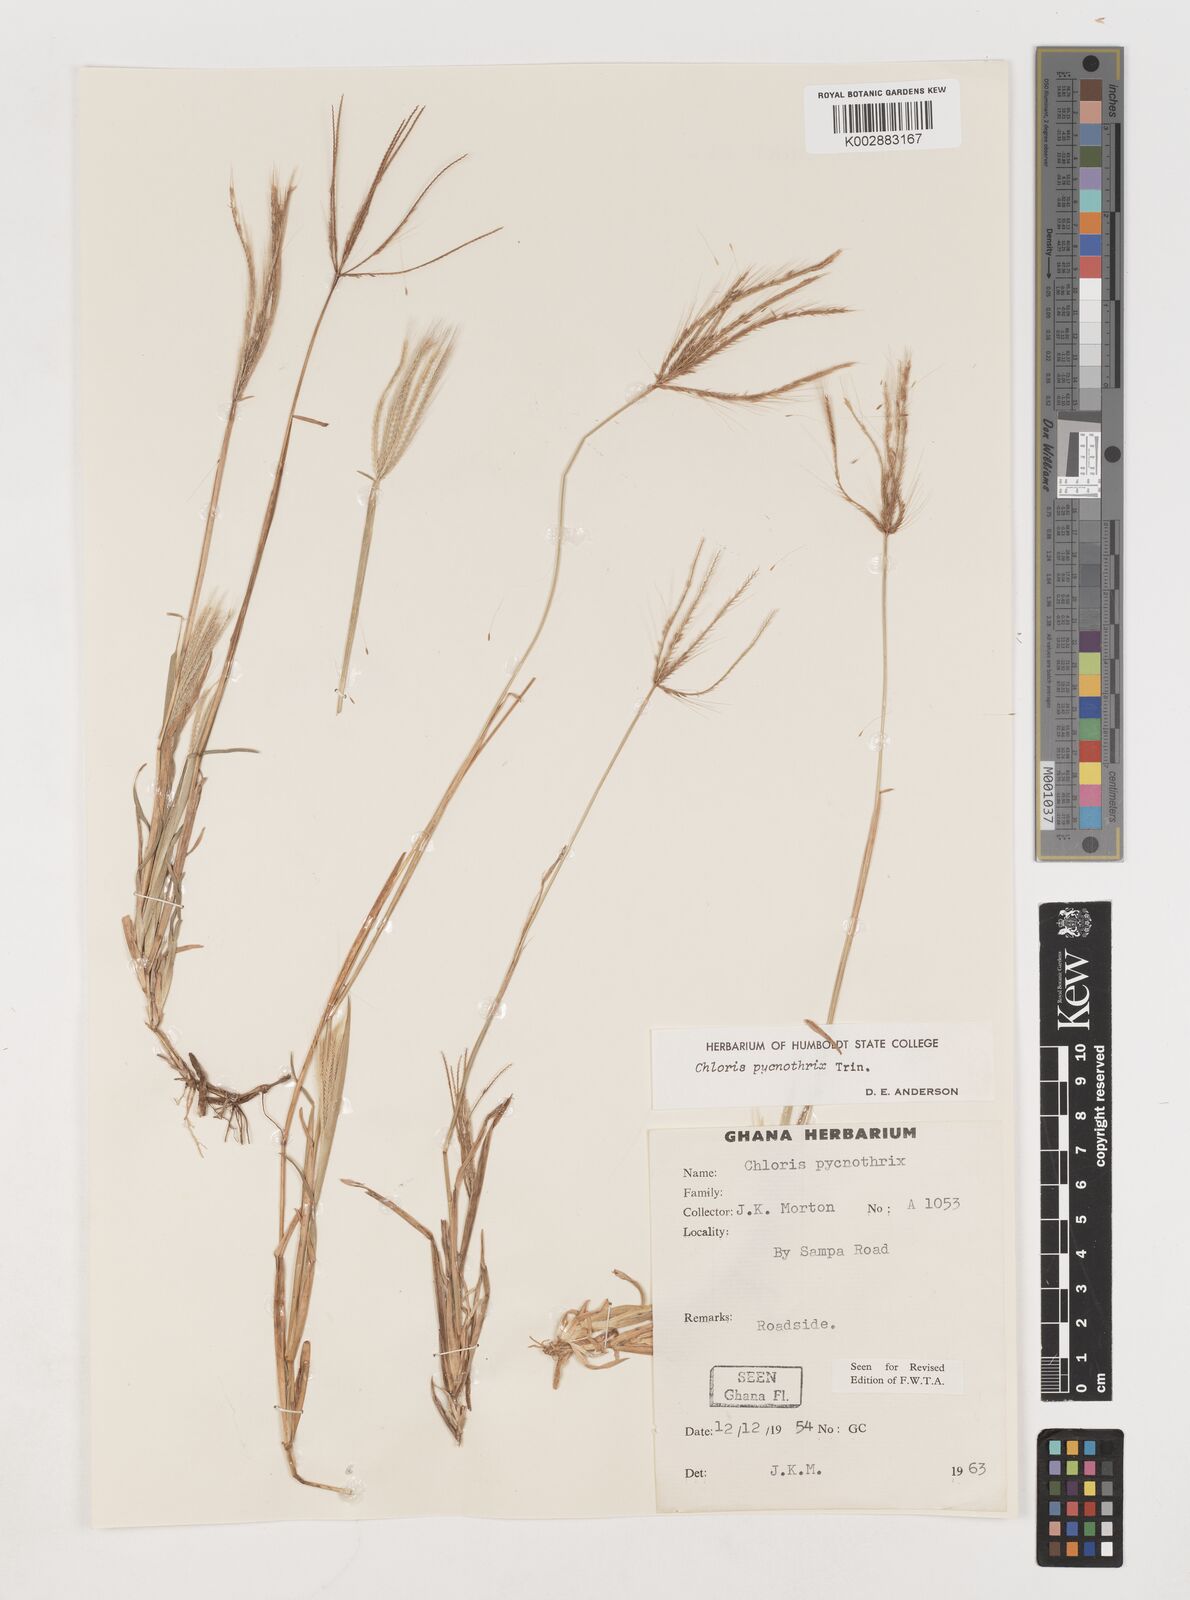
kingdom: Plantae
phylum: Tracheophyta
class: Liliopsida
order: Poales
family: Poaceae
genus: Chloris
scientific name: Chloris pycnothrix
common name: Spiderweb chloris
